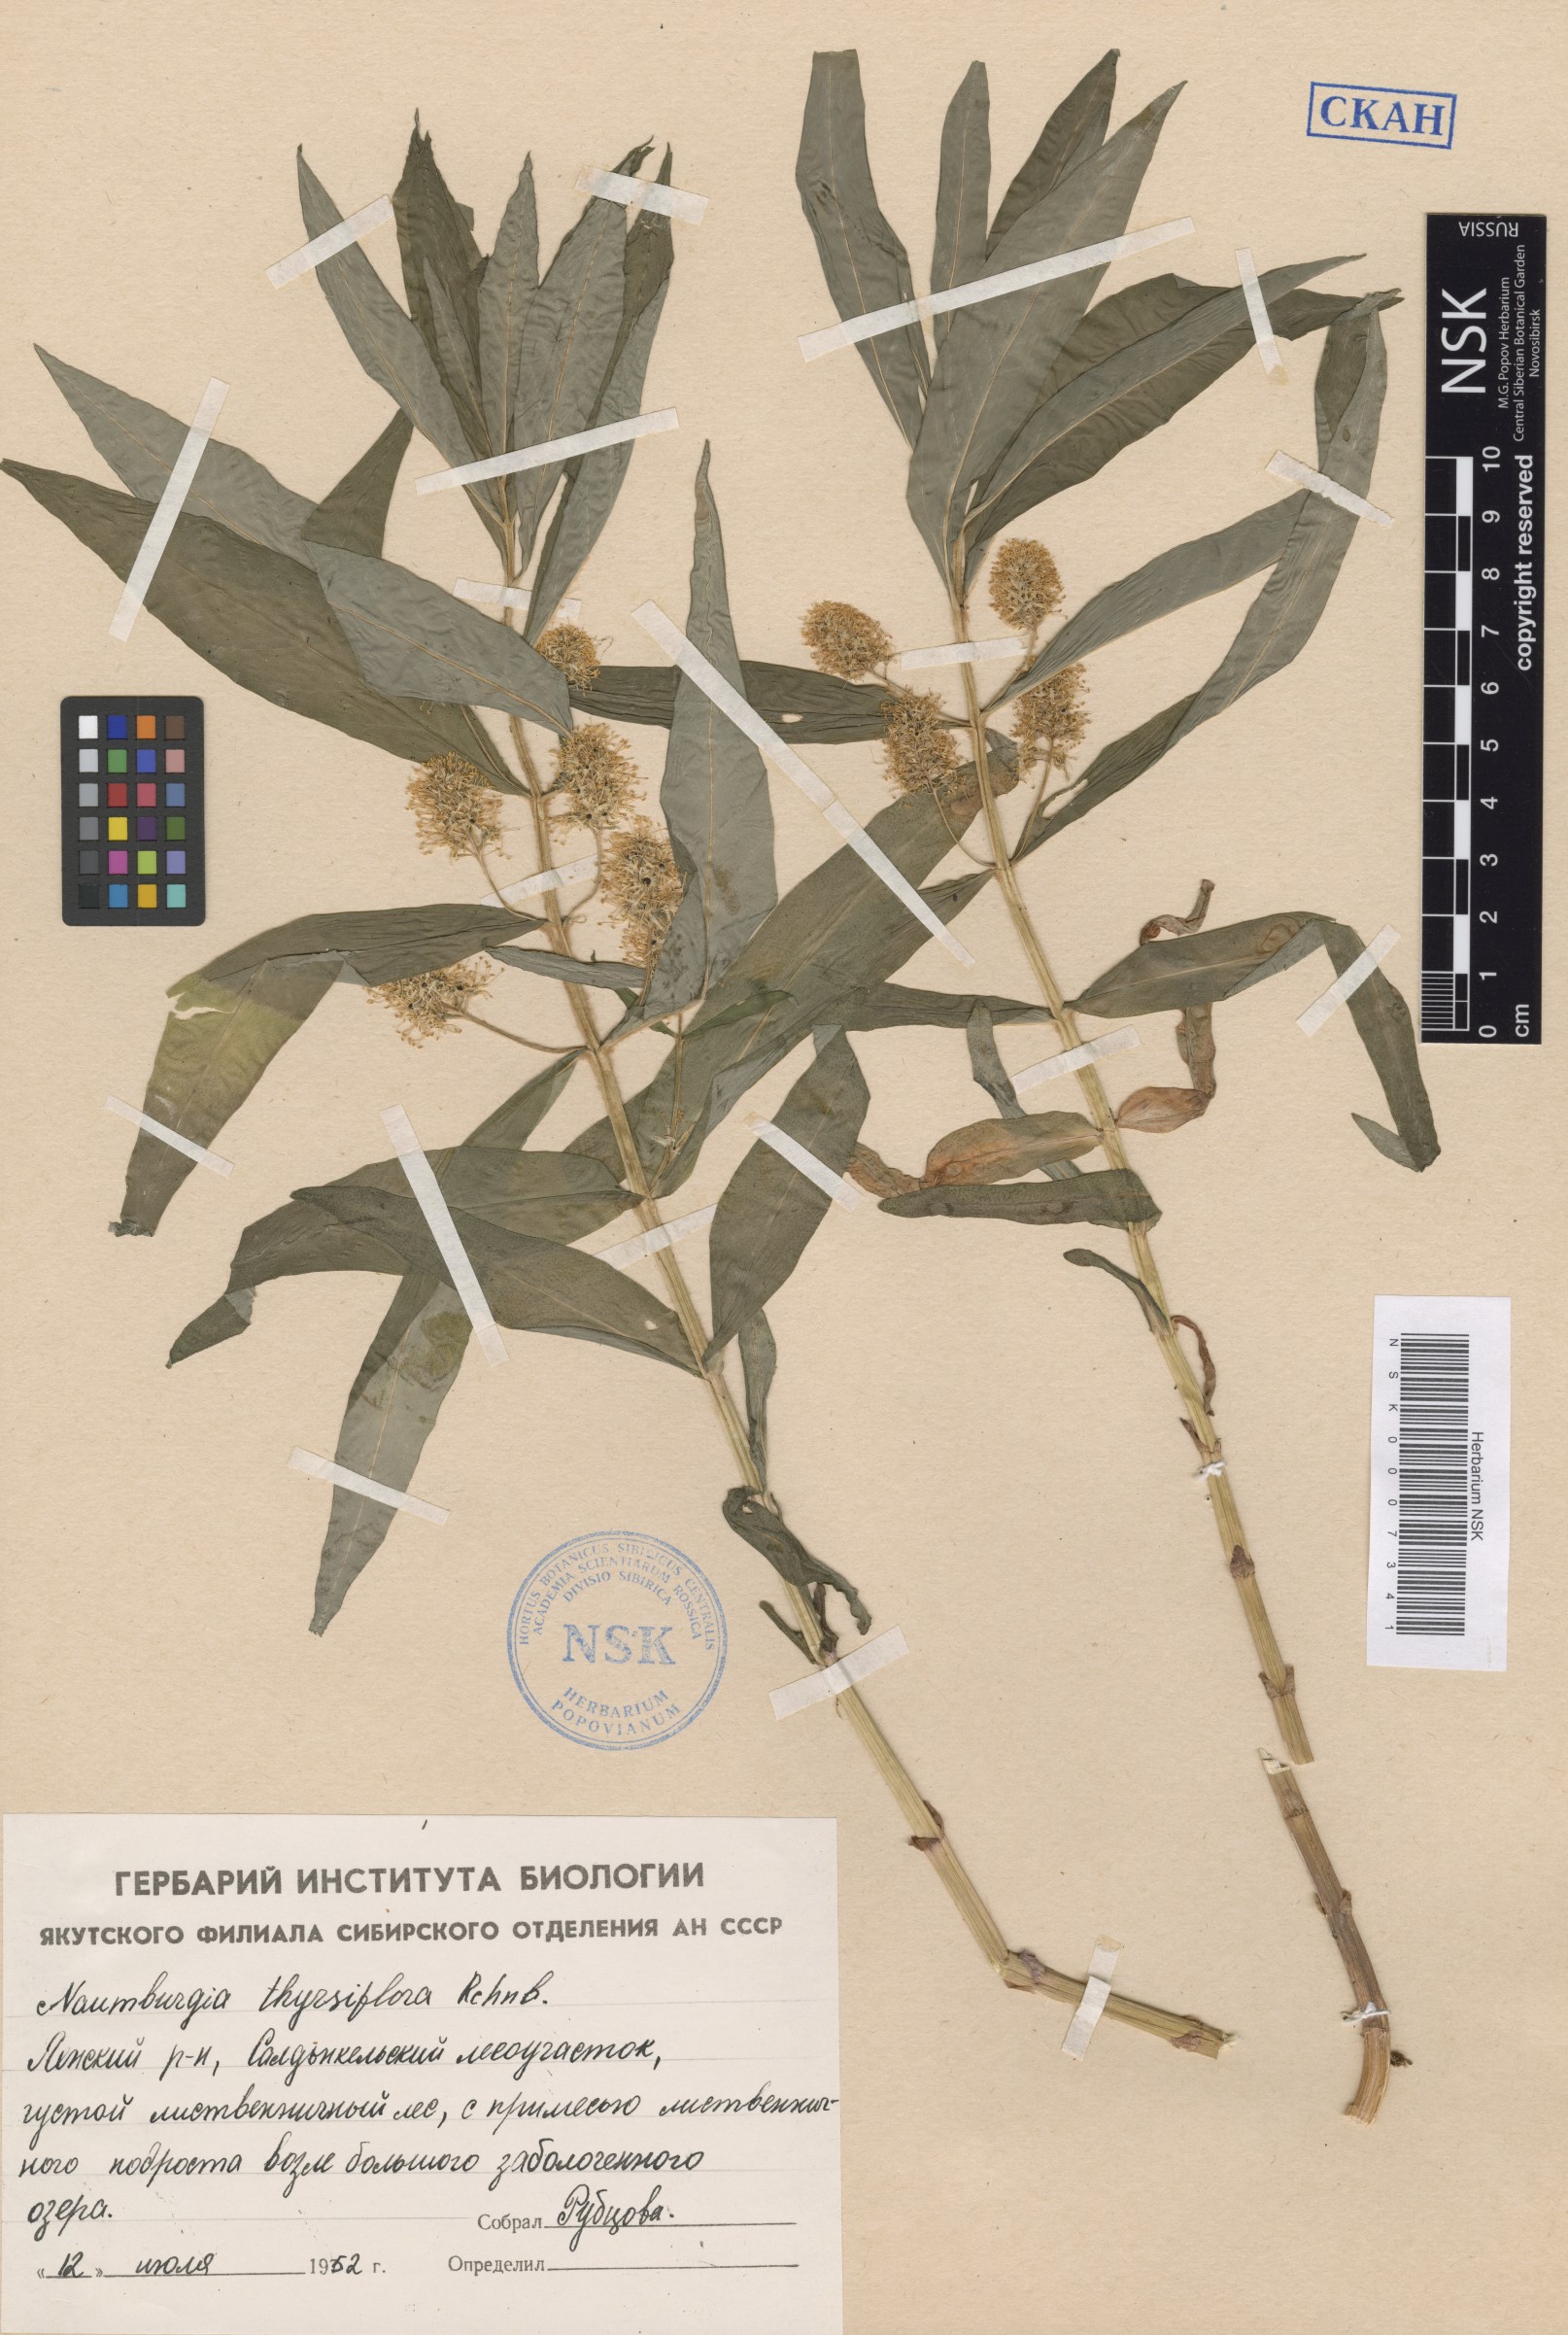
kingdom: Plantae
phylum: Tracheophyta
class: Magnoliopsida
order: Ericales
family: Primulaceae
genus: Lysimachia
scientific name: Lysimachia thyrsiflora
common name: Tufted loosestrife
